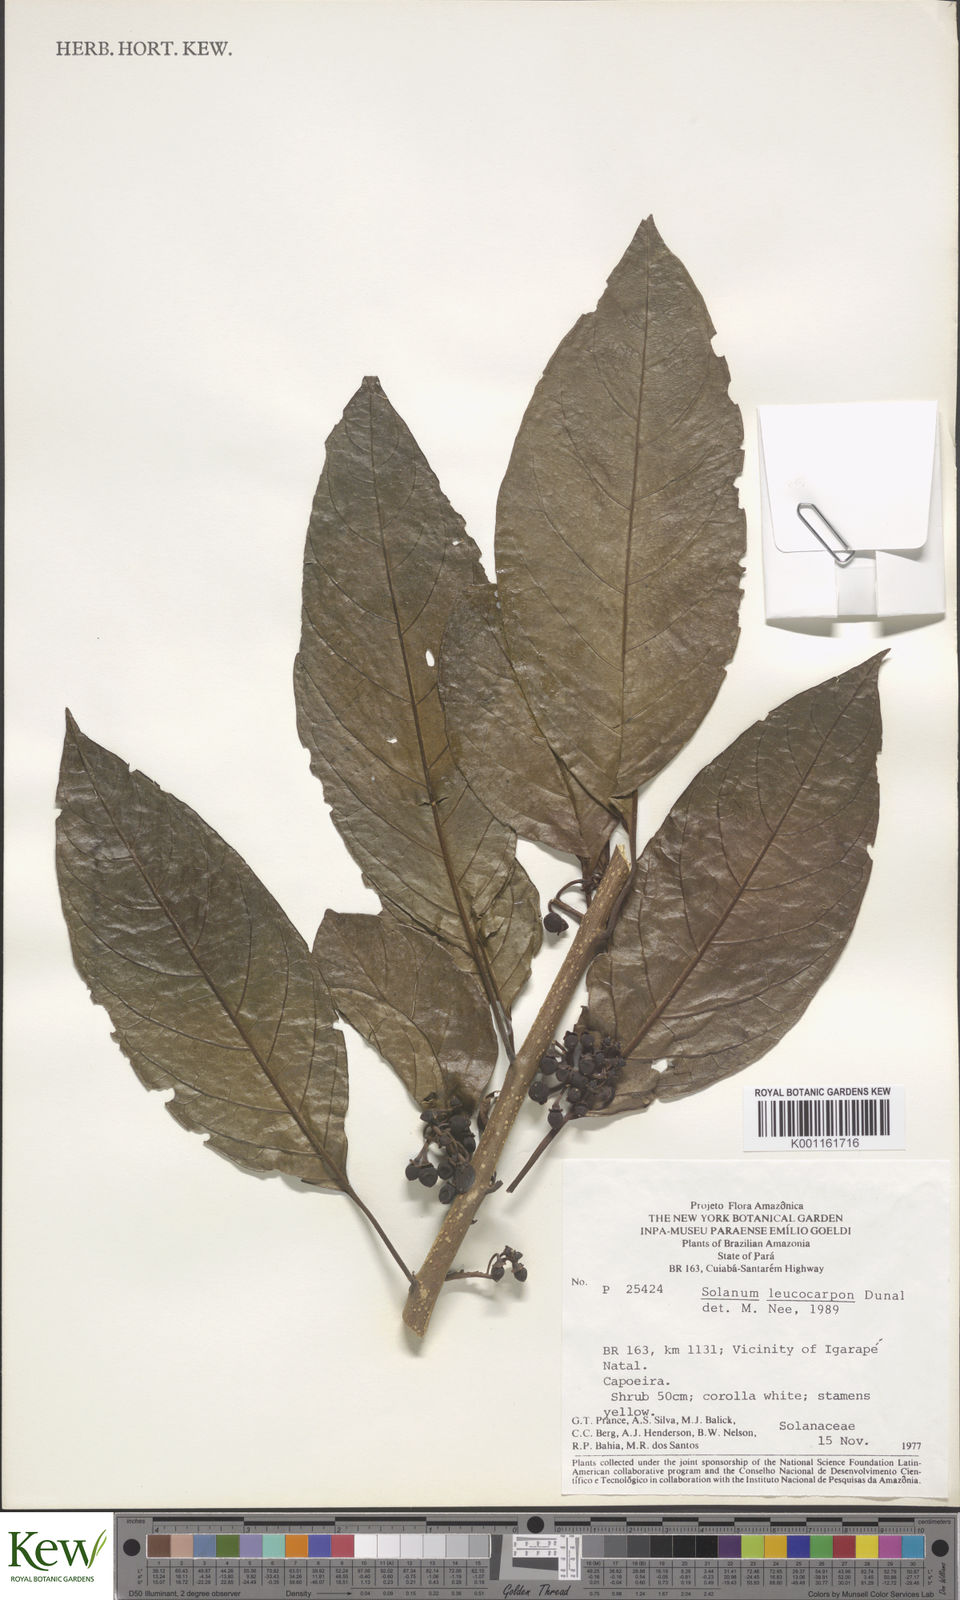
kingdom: Plantae
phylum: Tracheophyta
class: Magnoliopsida
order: Solanales
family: Solanaceae
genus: Solanum
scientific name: Solanum leucocarpon
